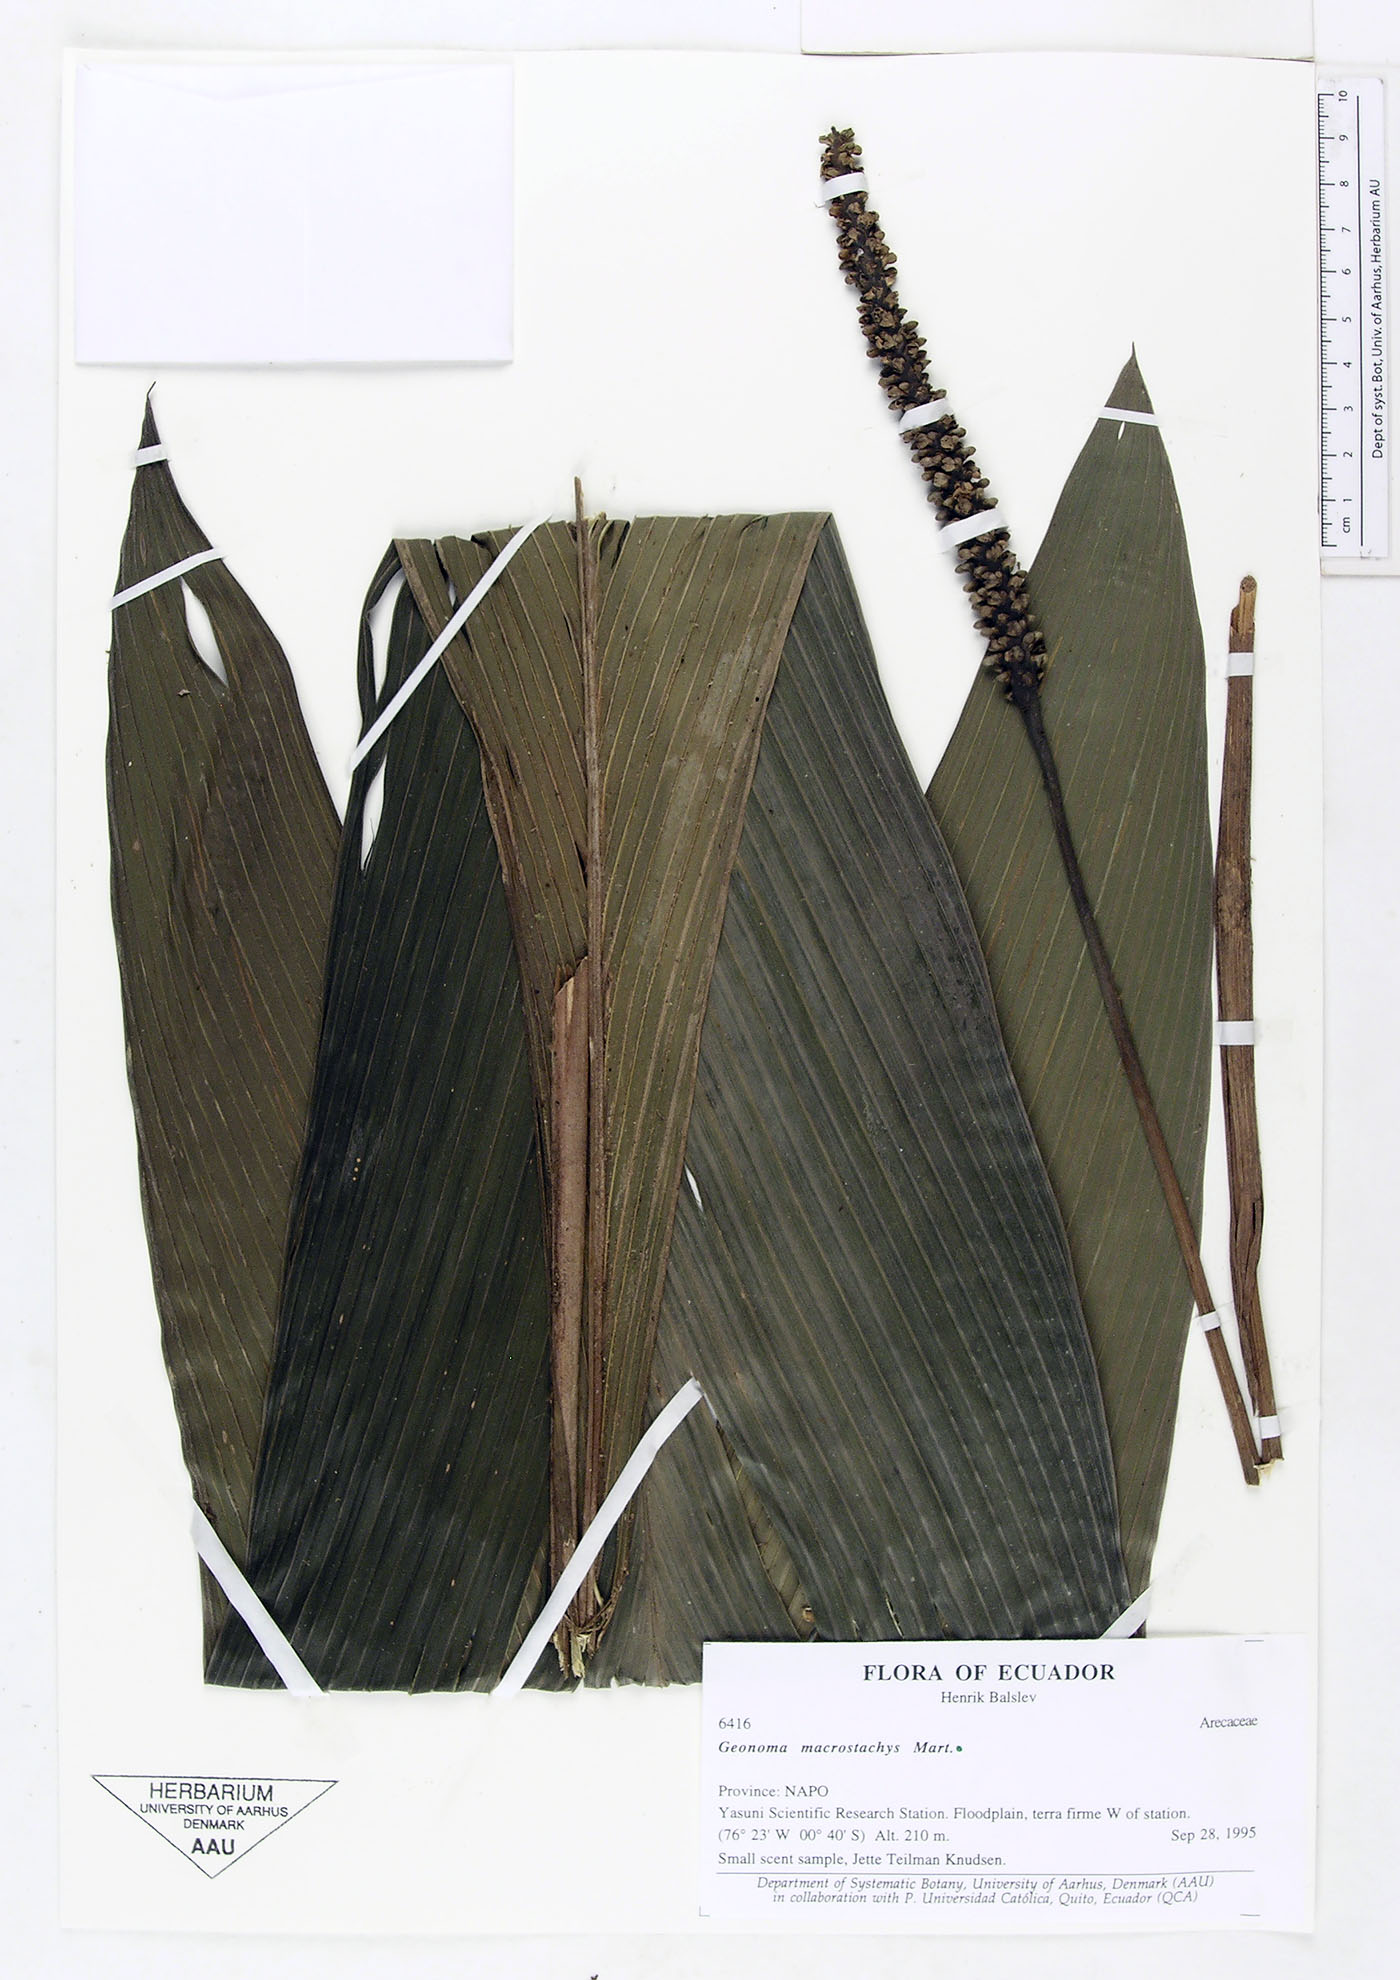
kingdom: Plantae
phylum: Tracheophyta
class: Liliopsida
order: Arecales
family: Arecaceae
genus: Geonoma
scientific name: Geonoma macrostachys
